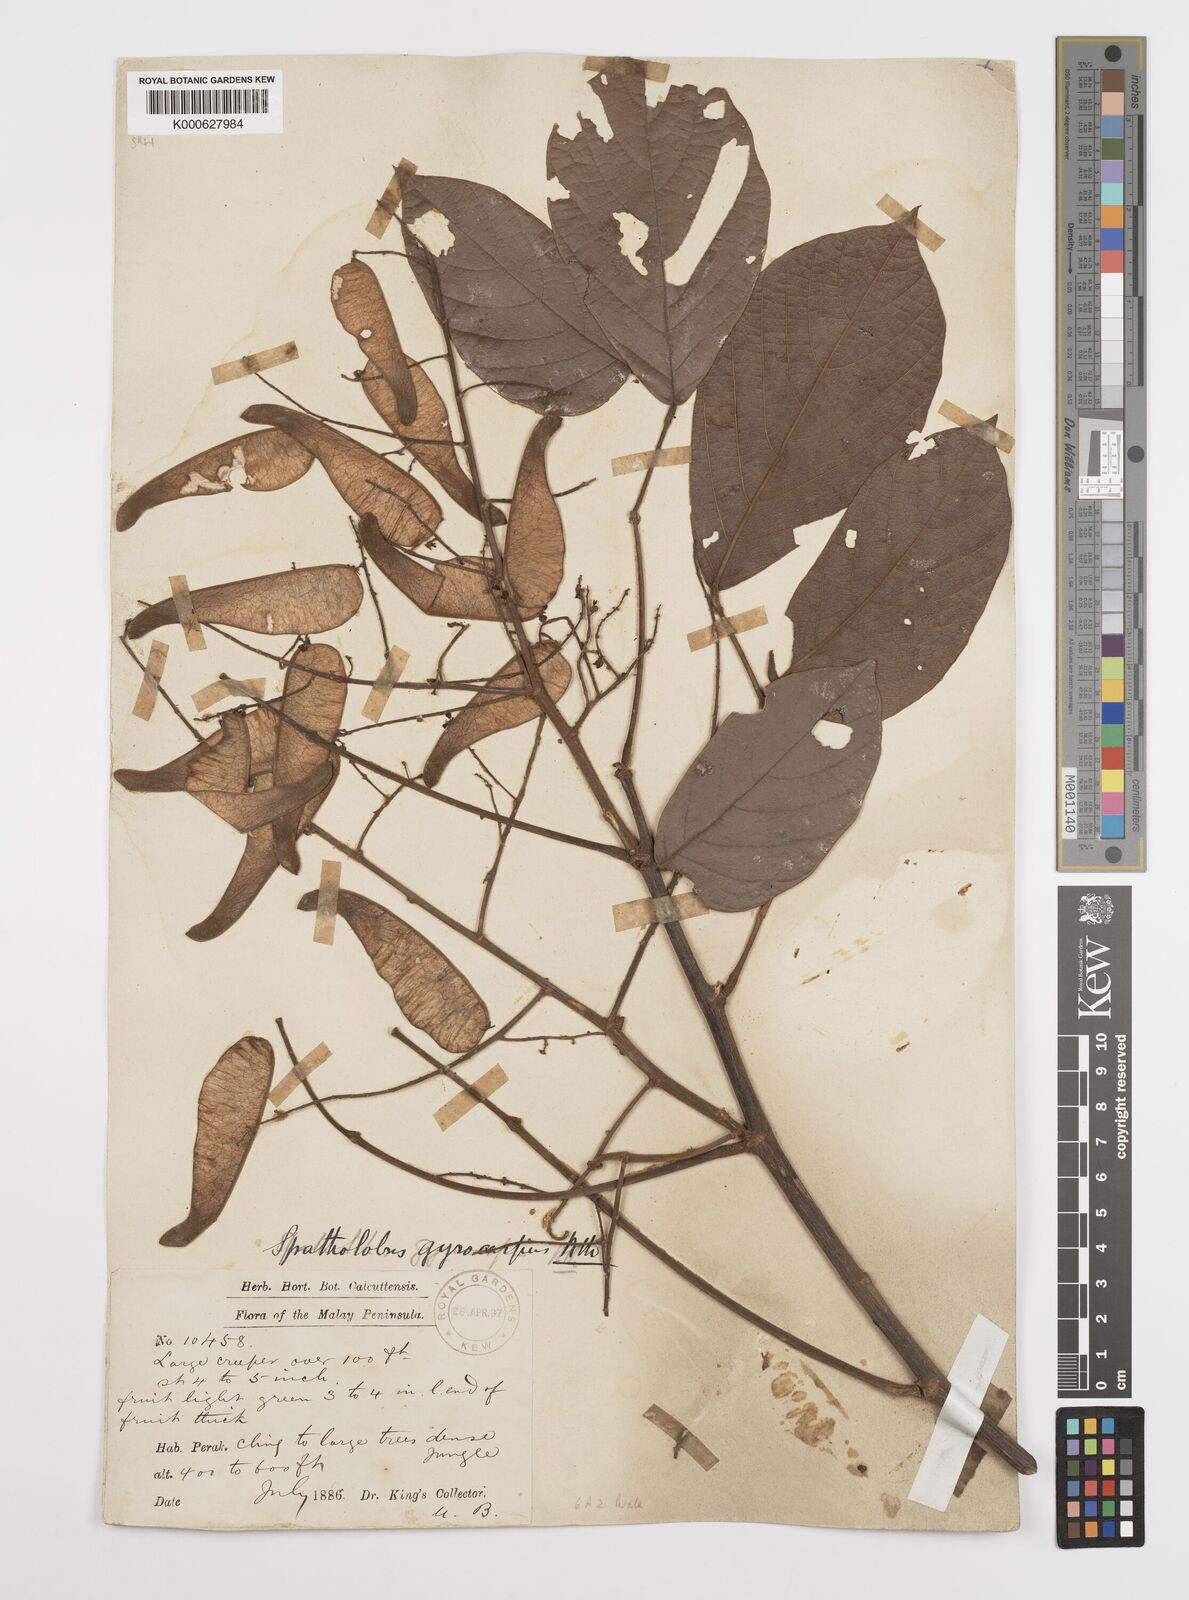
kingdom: Plantae
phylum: Tracheophyta
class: Magnoliopsida
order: Fabales
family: Fabaceae
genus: Spatholobus
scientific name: Spatholobus gyrocarpus
